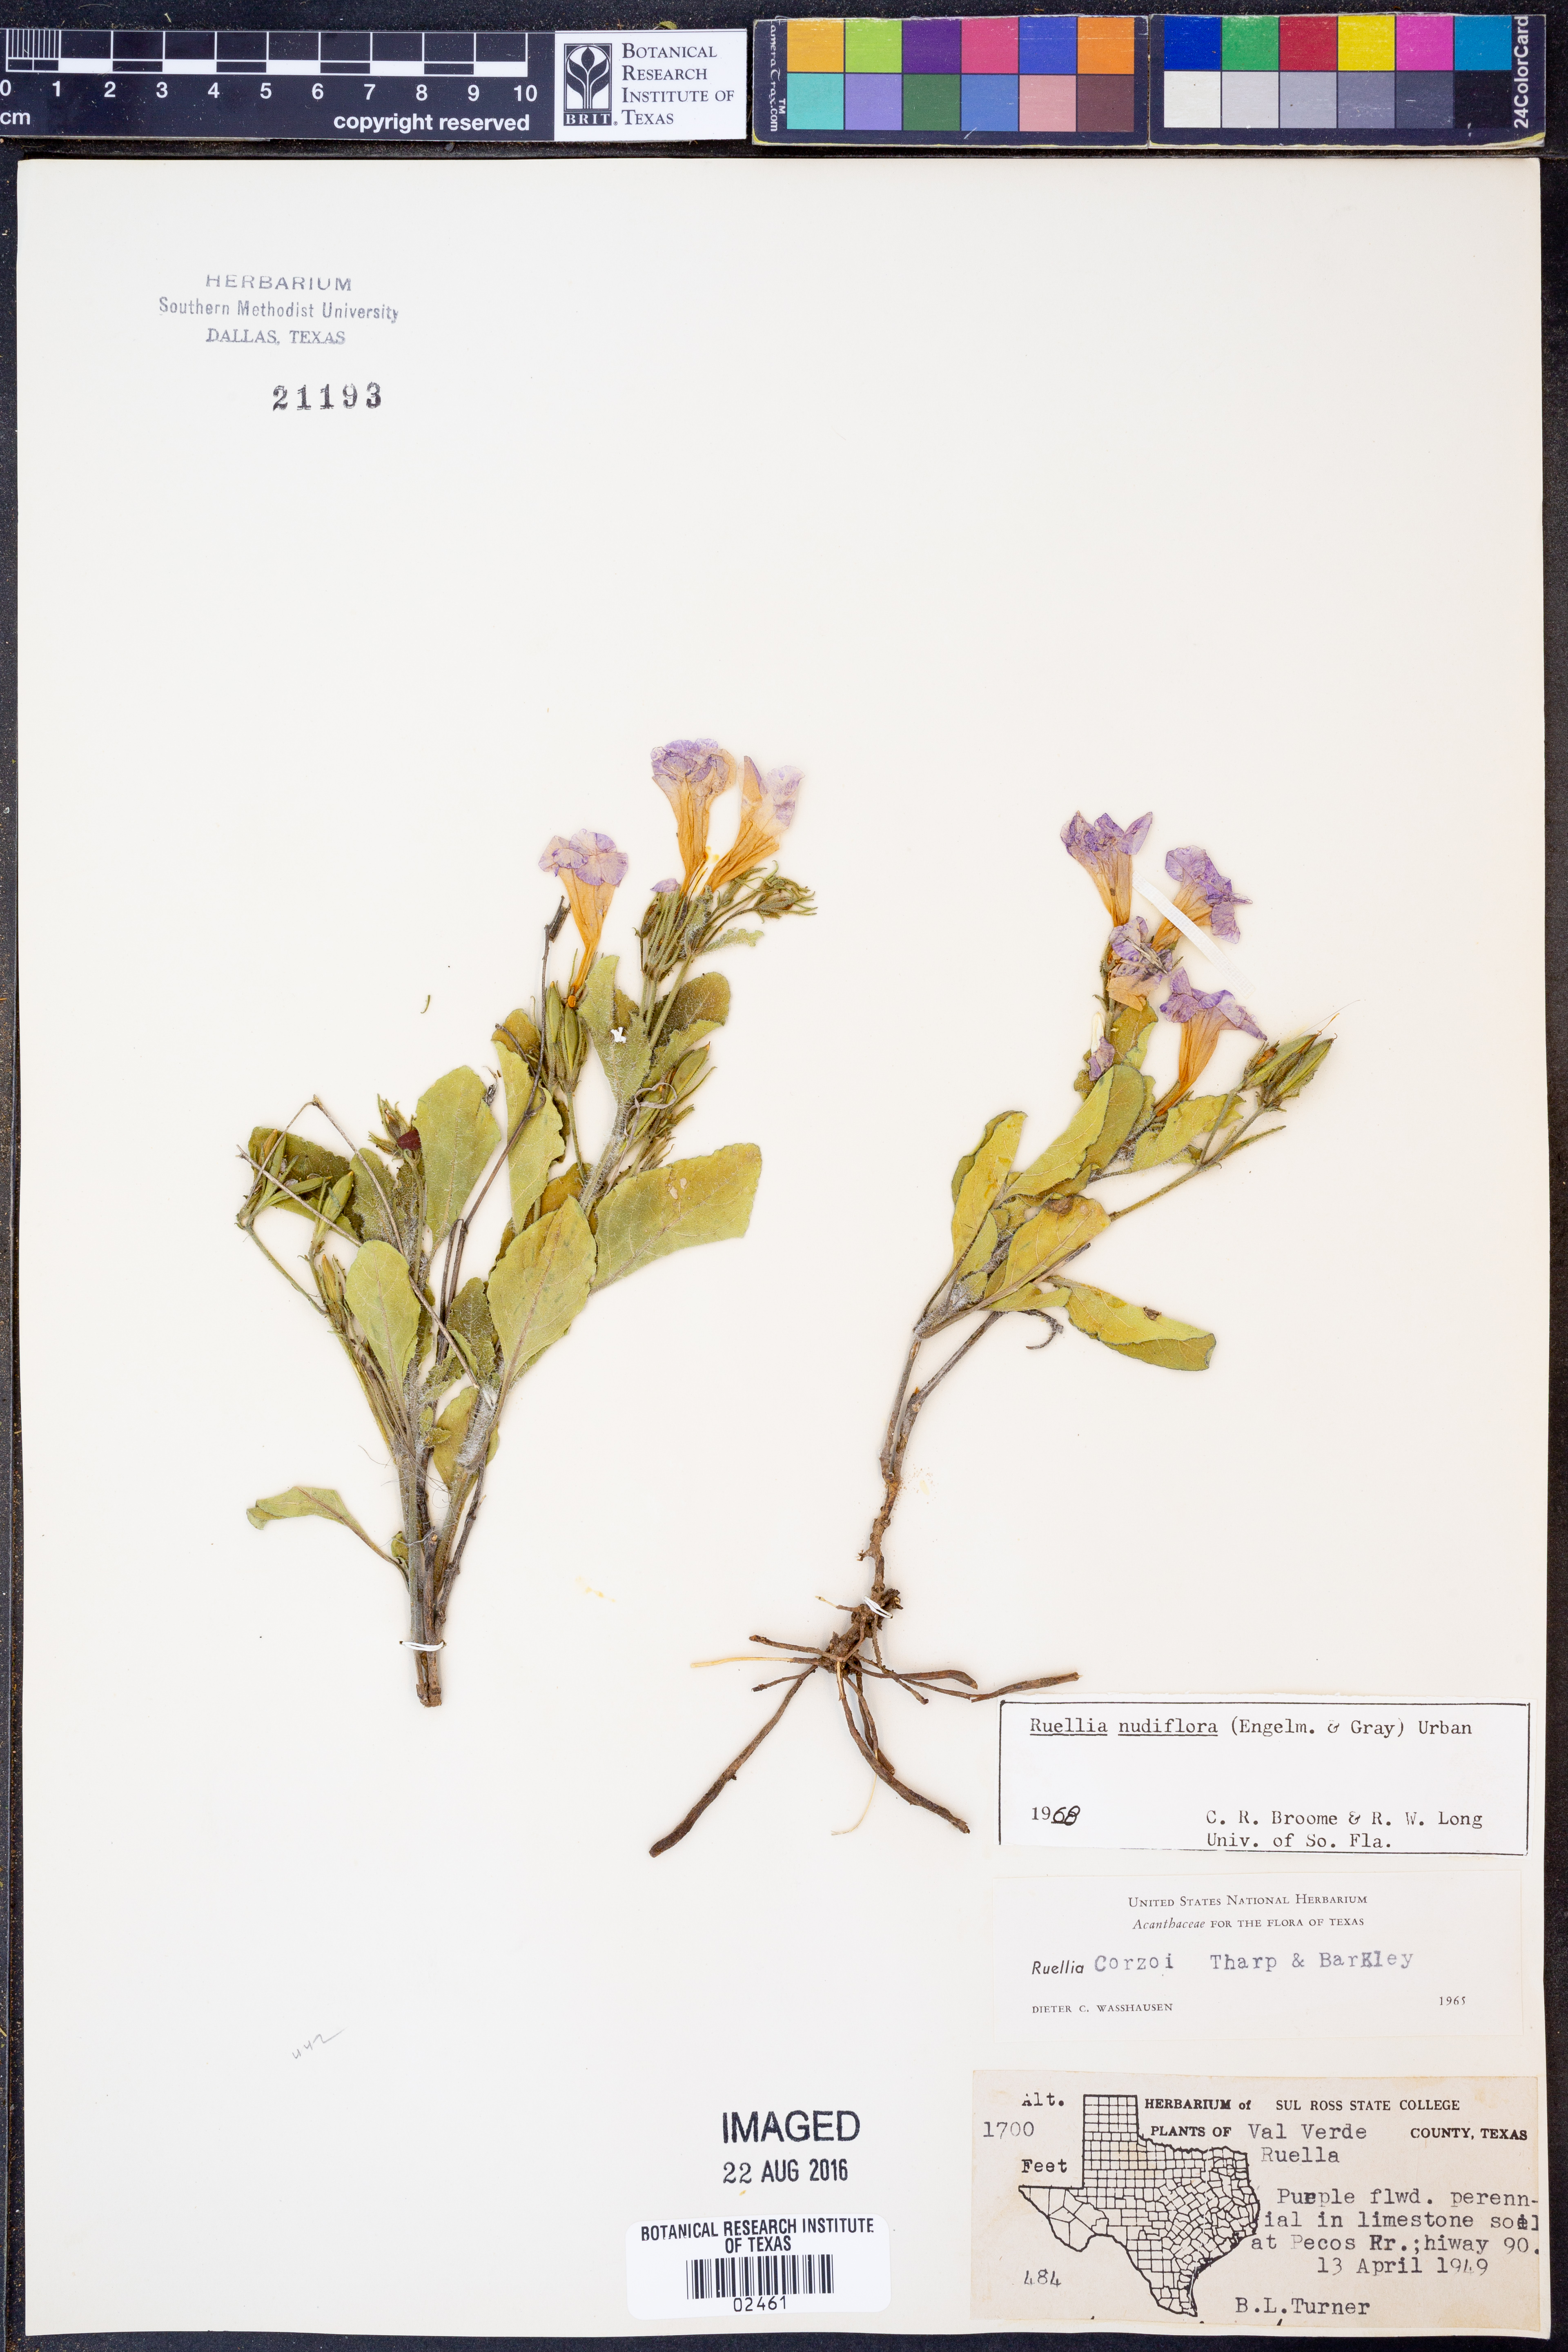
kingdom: Plantae
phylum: Tracheophyta
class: Magnoliopsida
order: Lamiales
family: Acanthaceae
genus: Ruellia
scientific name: Ruellia ciliatiflora
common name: Hairyflower wild petunia
